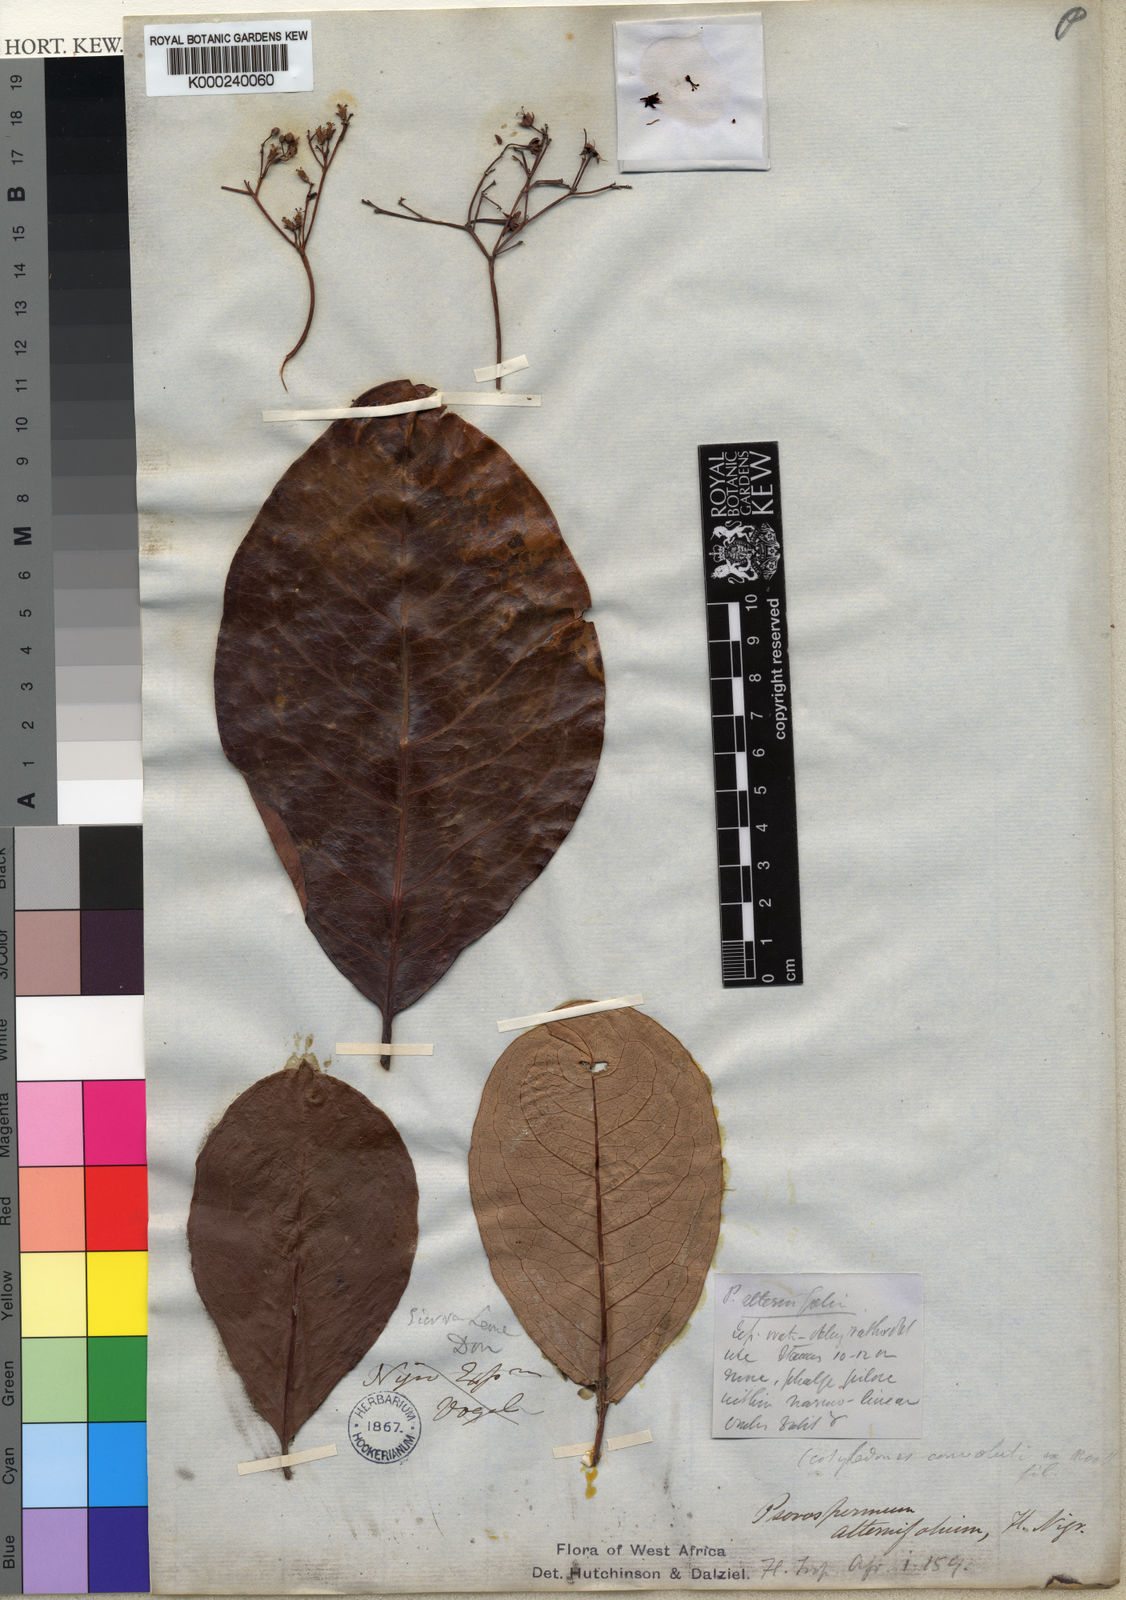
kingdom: Plantae
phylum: Tracheophyta
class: Magnoliopsida
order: Malpighiales
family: Hypericaceae
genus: Psorospermum
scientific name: Psorospermum alternifolium
